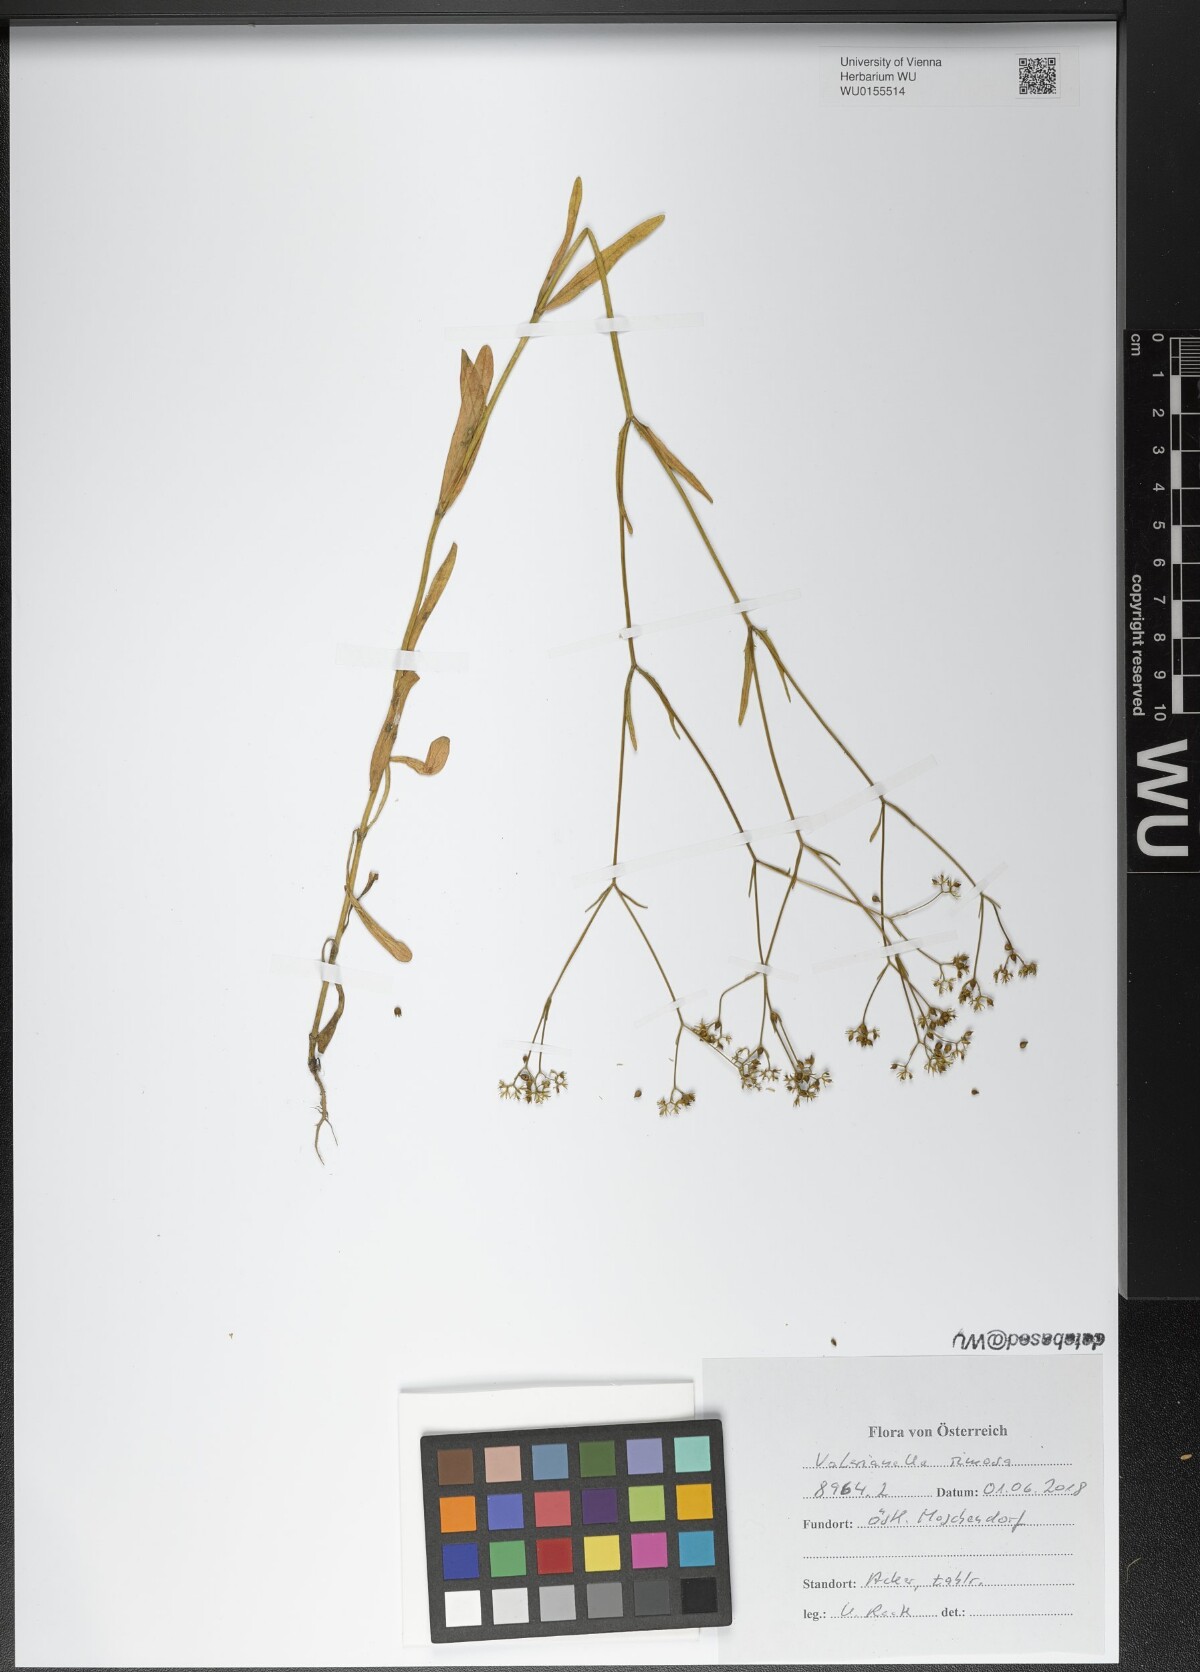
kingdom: Plantae
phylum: Tracheophyta
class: Magnoliopsida
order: Dipsacales
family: Caprifoliaceae
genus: Valerianella
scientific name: Valerianella rimosa
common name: Broad-fruited cornsalad
